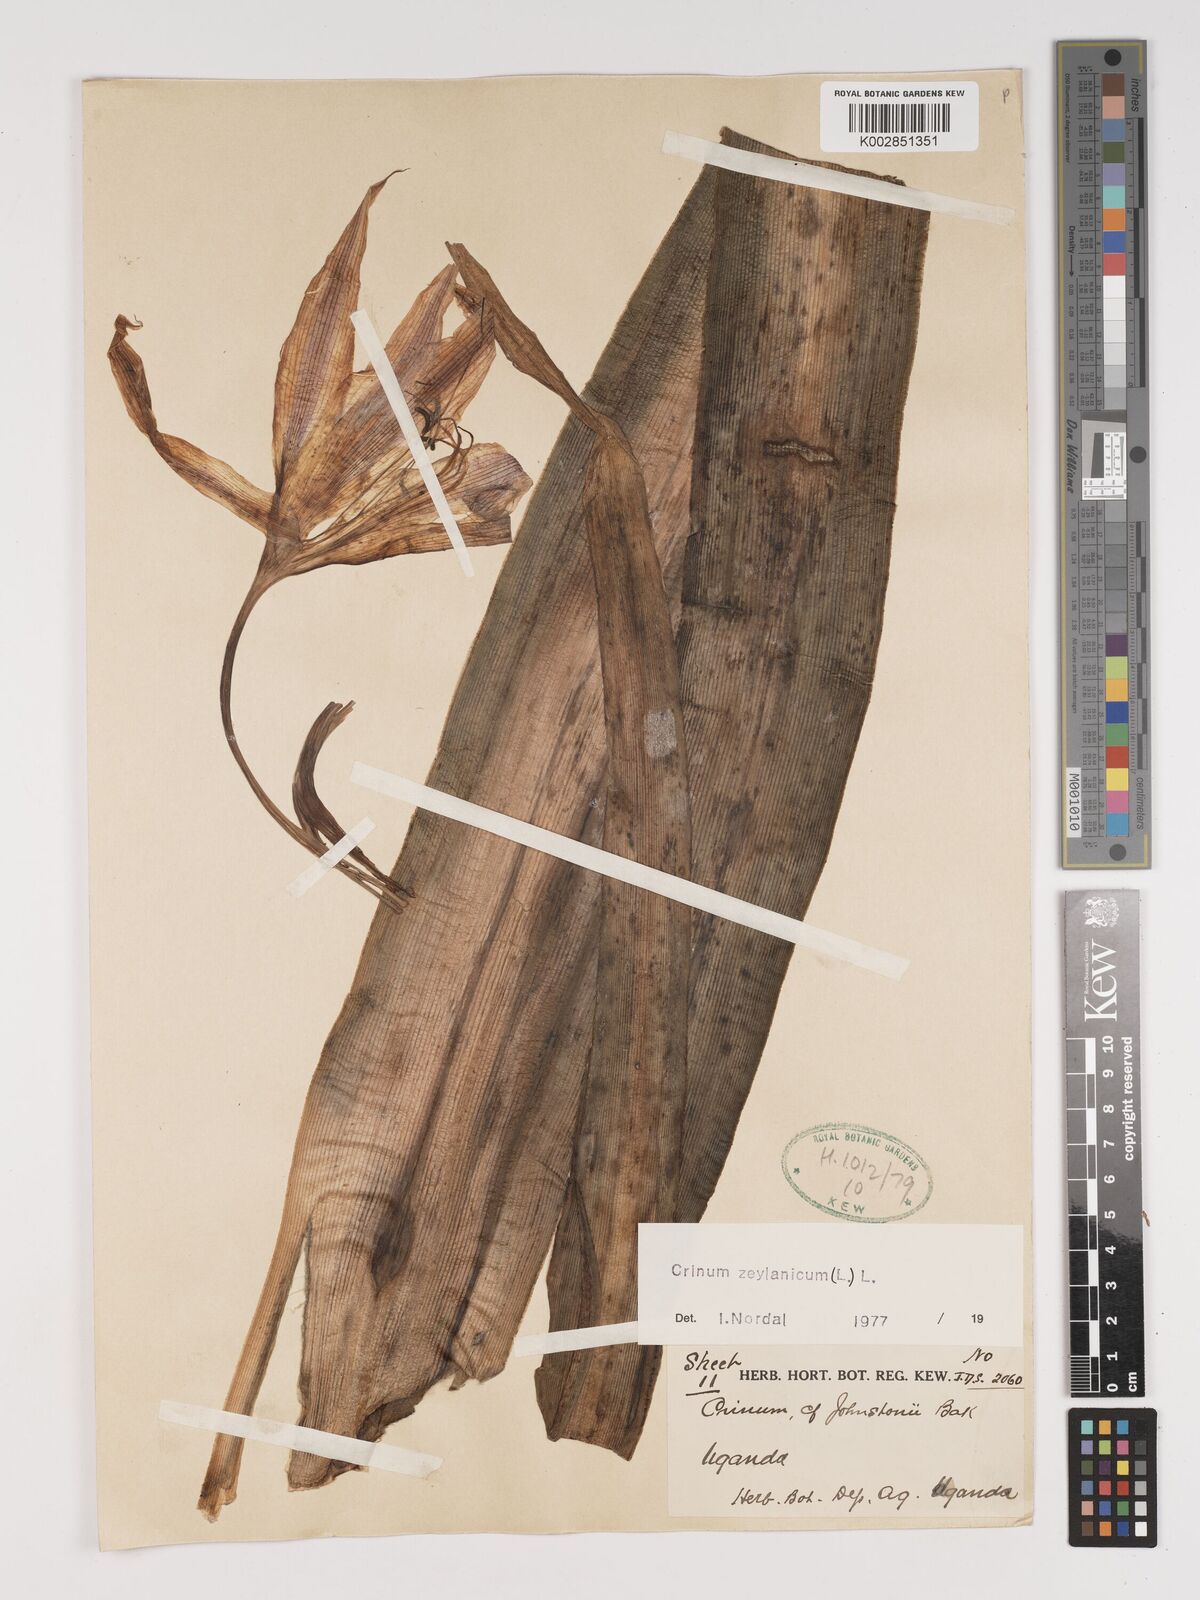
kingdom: Plantae
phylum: Tracheophyta
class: Liliopsida
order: Asparagales
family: Amaryllidaceae
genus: Crinum
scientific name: Crinum zeylanicum
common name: Ceylon swamplily
